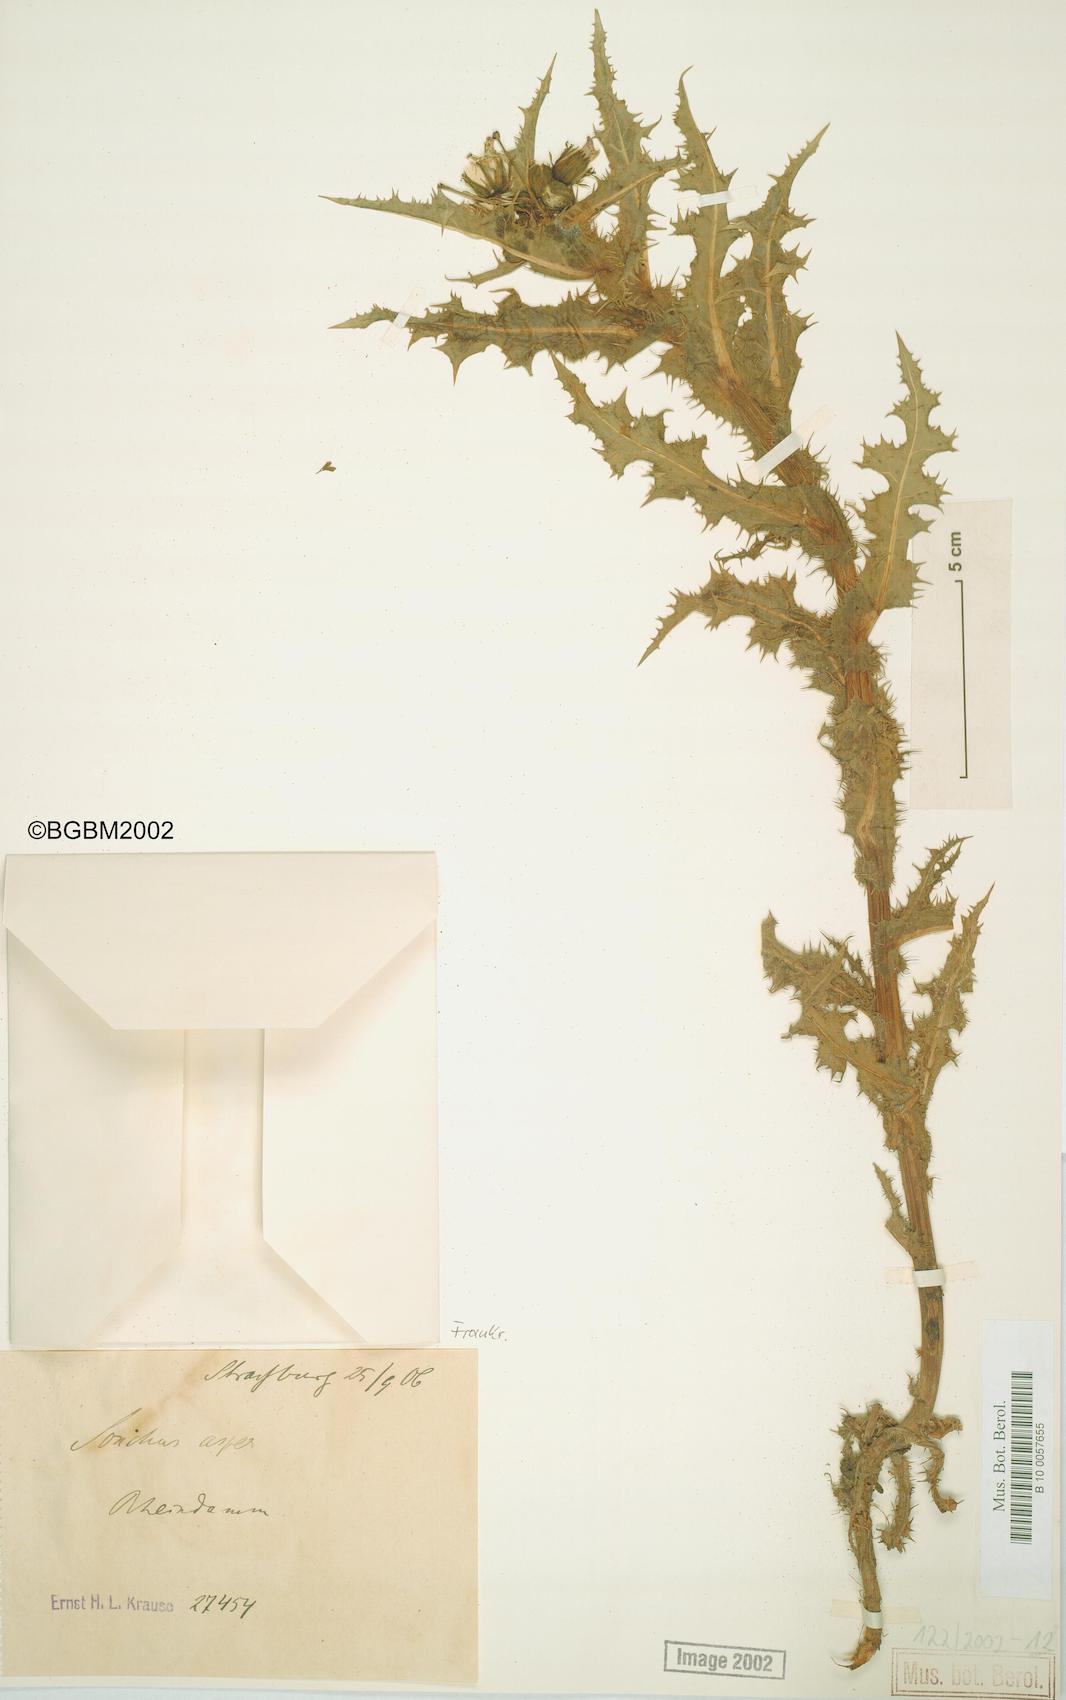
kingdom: Plantae
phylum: Tracheophyta
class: Magnoliopsida
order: Asterales
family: Asteraceae
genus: Sonchus
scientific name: Sonchus asper
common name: Prickly sow-thistle
